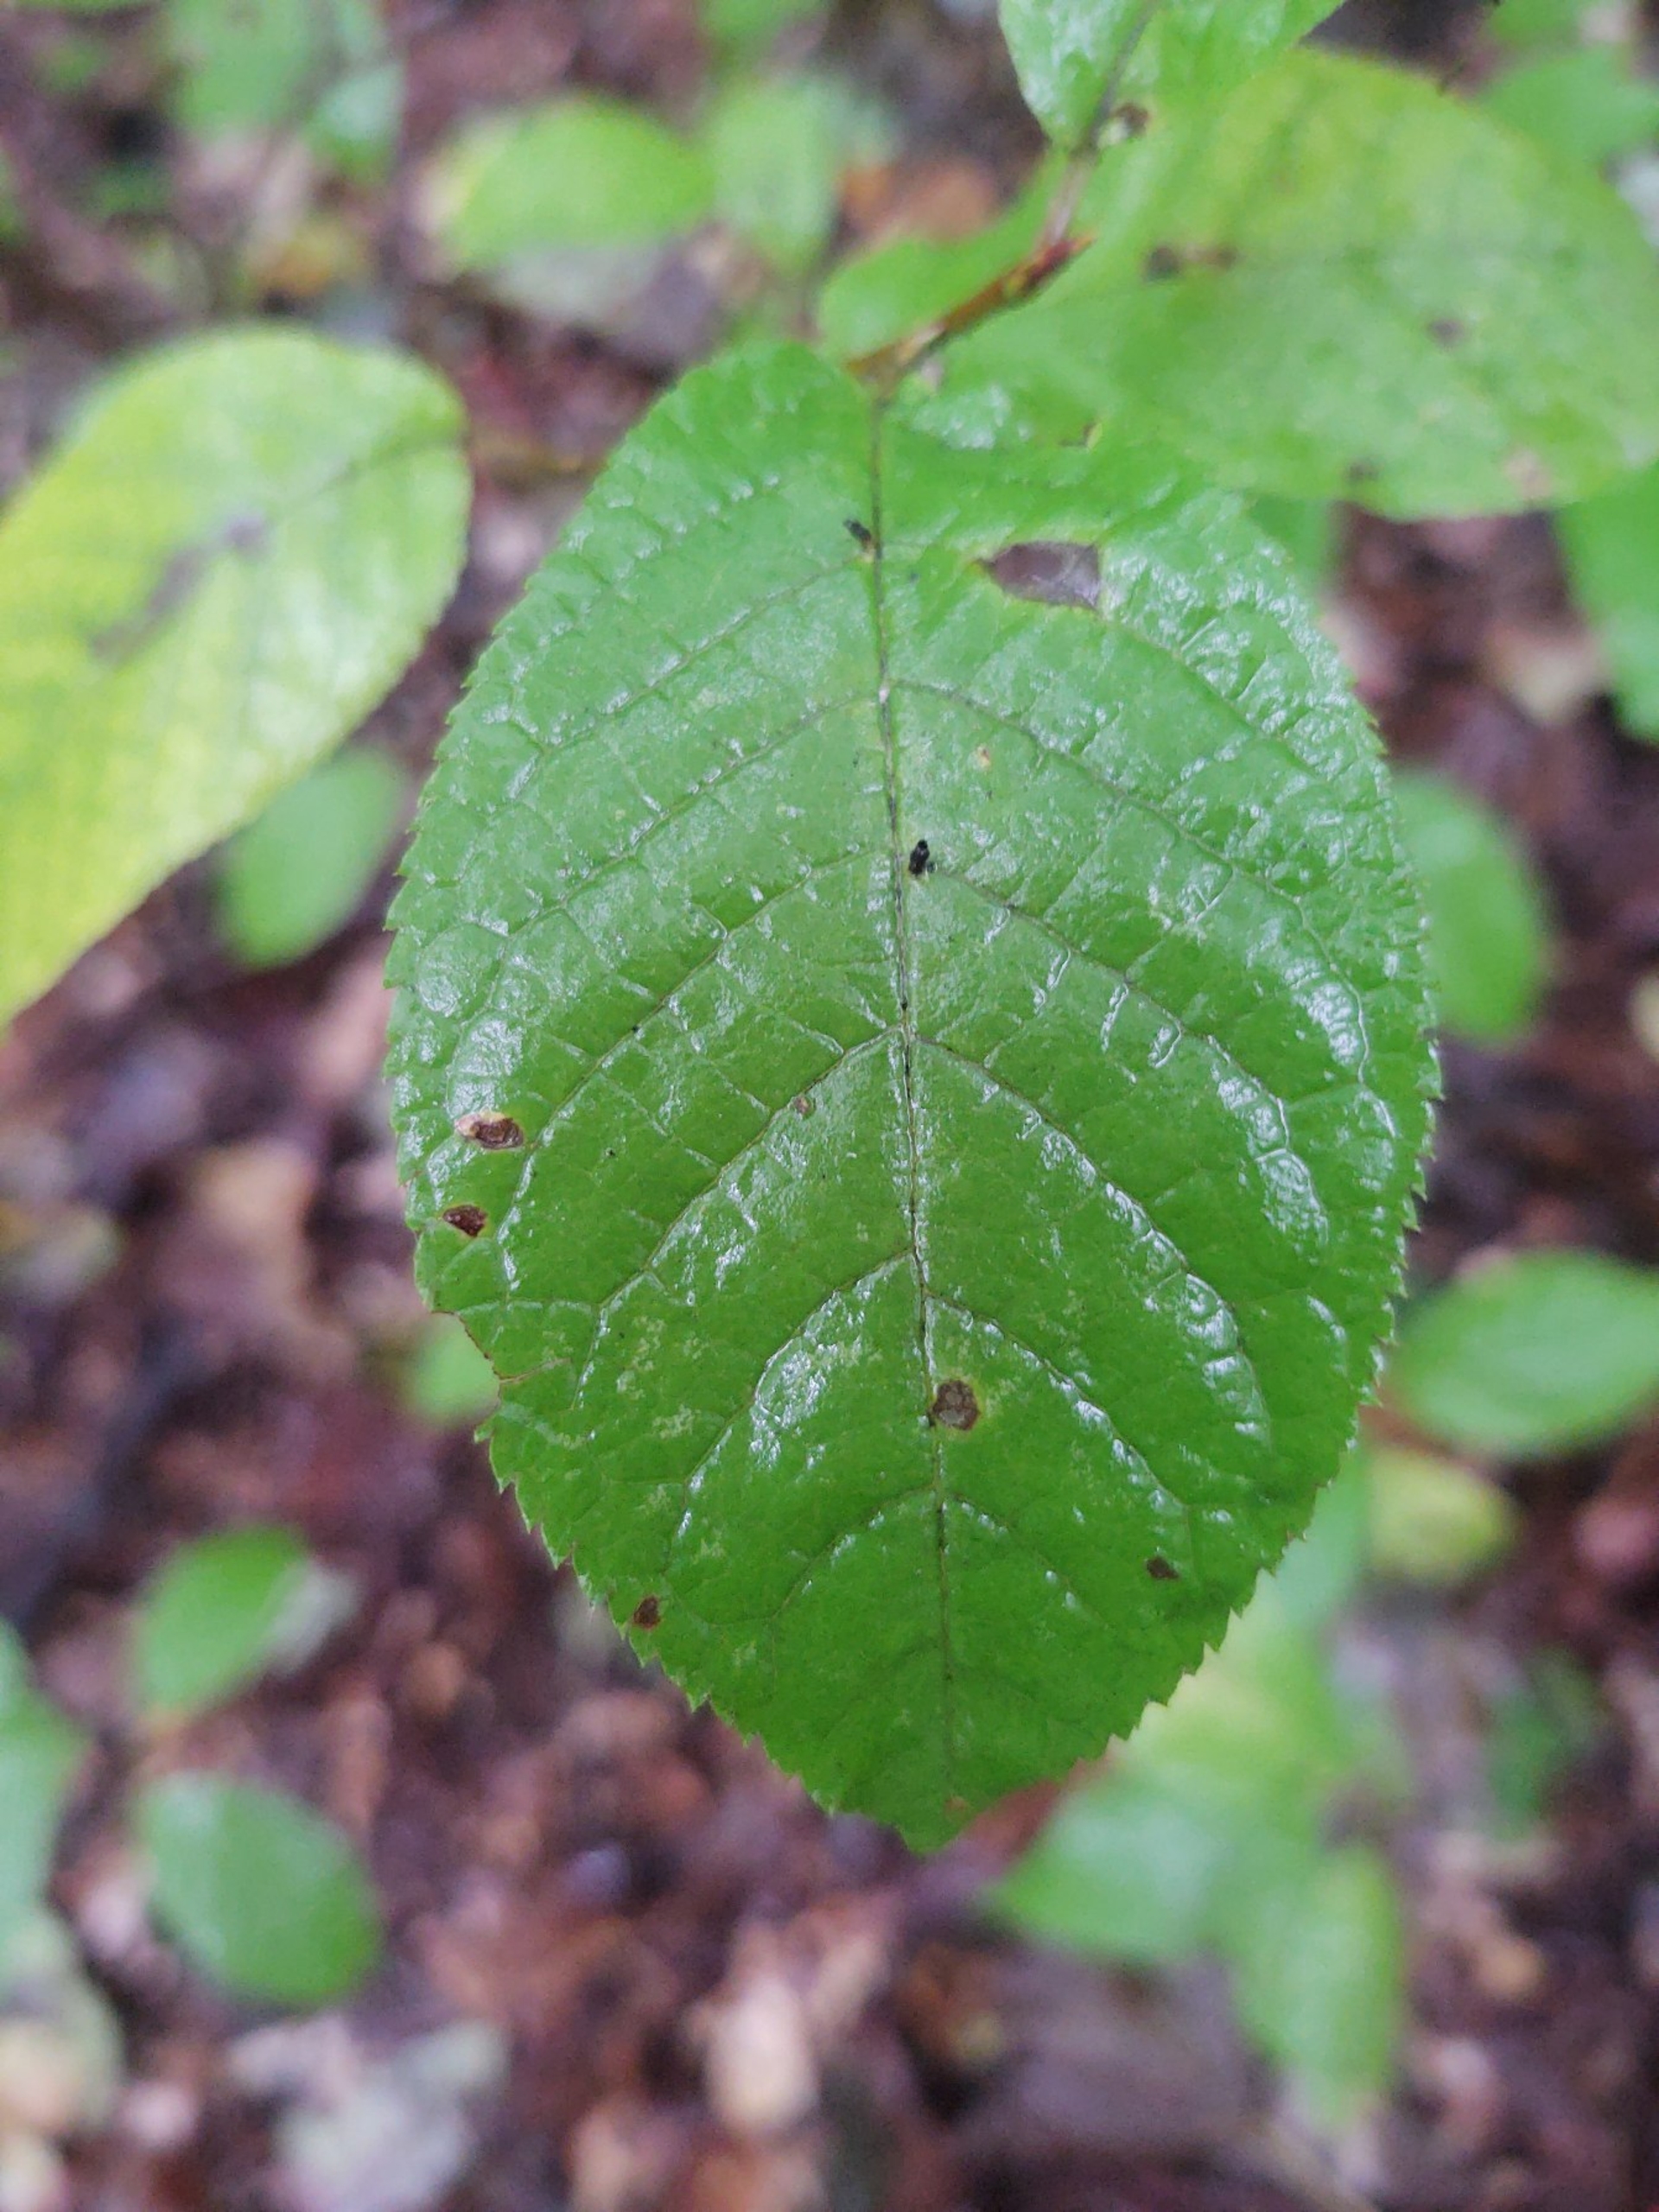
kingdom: Plantae
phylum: Tracheophyta
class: Magnoliopsida
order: Rosales
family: Rosaceae
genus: Prunus
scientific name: Prunus padus
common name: Almindelig hæg
